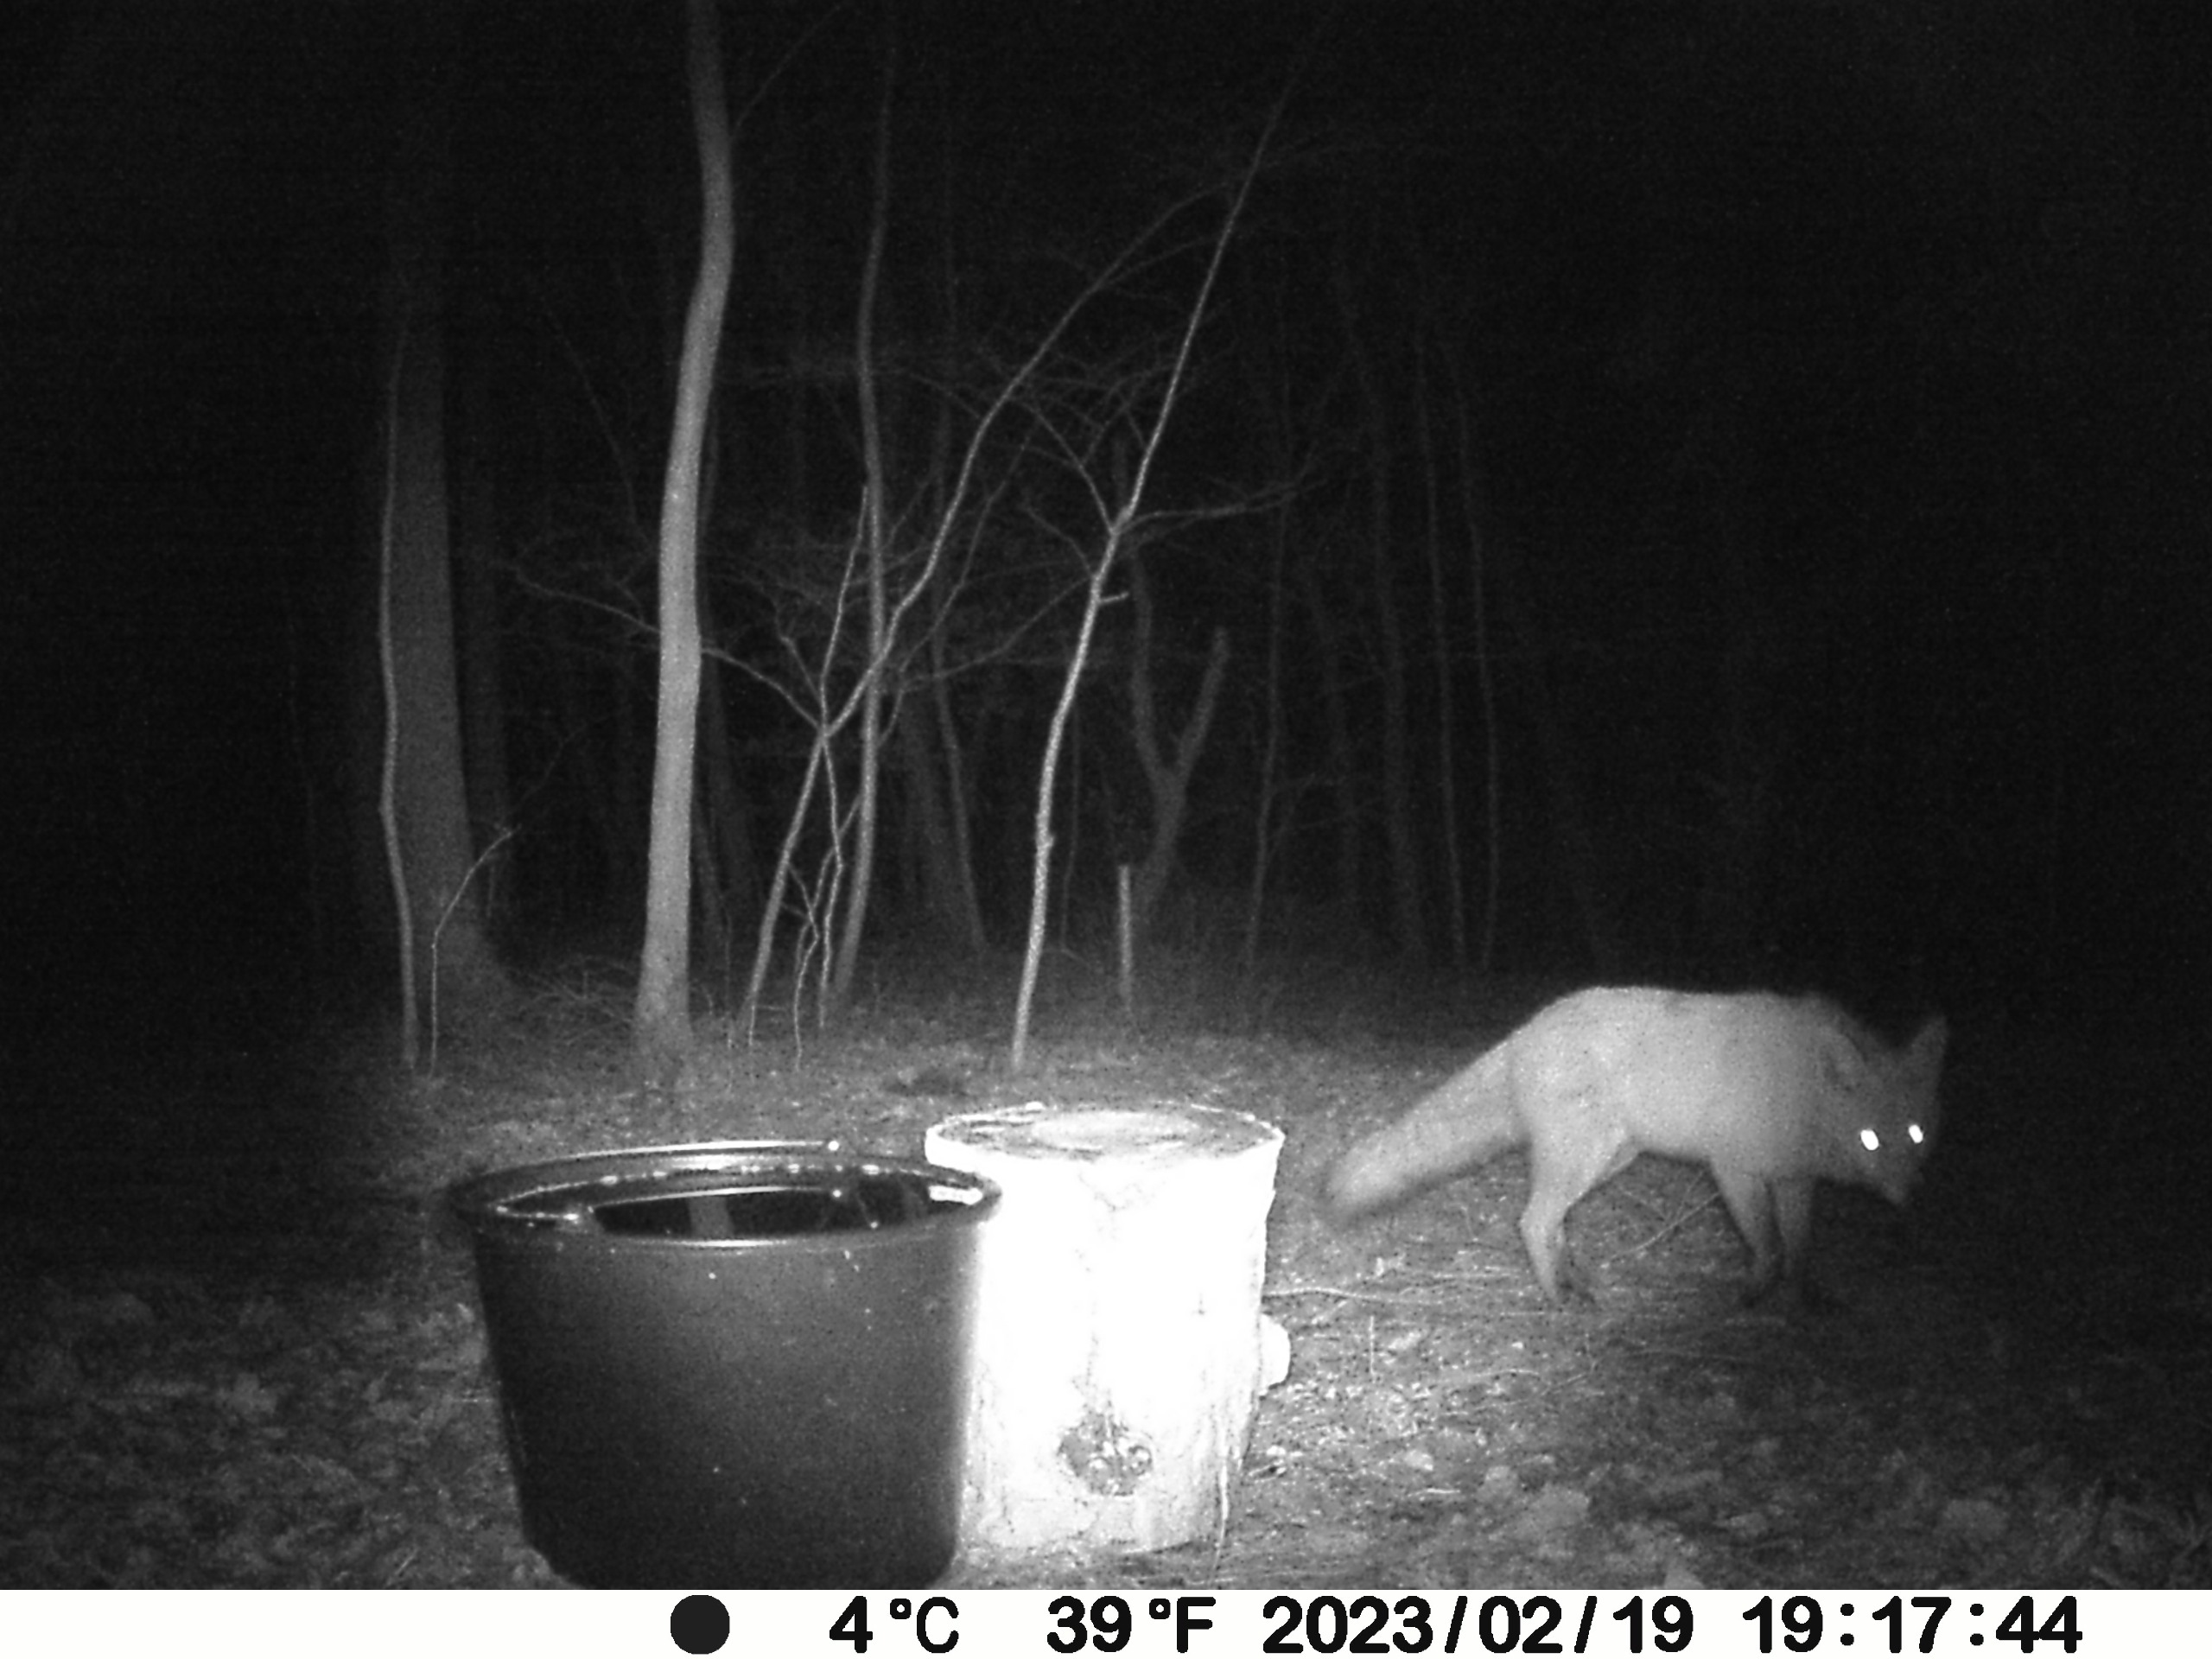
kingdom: Animalia
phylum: Chordata
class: Mammalia
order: Carnivora
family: Canidae
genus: Vulpes
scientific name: Vulpes vulpes
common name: Ræv
